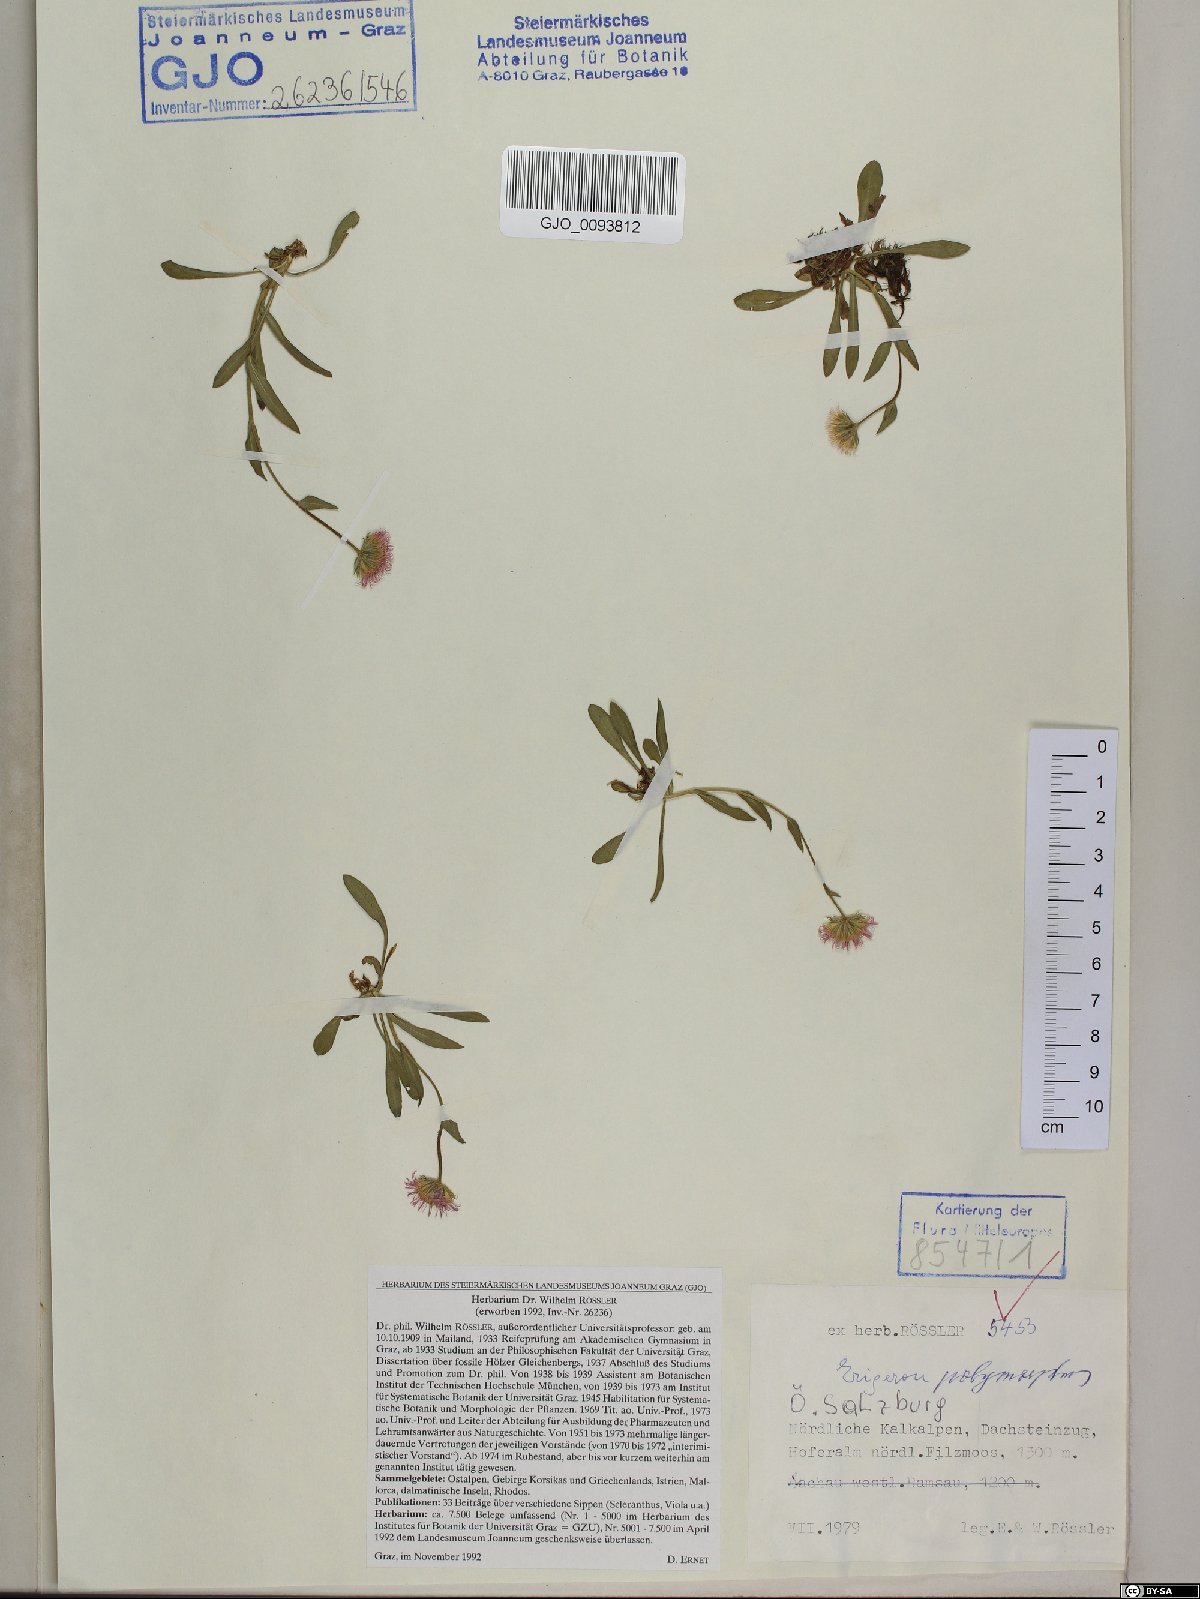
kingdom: Plantae
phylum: Tracheophyta
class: Magnoliopsida
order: Asterales
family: Asteraceae
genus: Erigeron
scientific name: Erigeron alpinus
